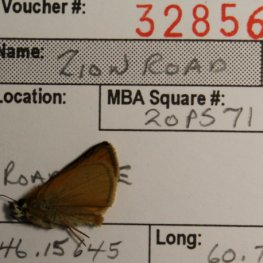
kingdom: Animalia
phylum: Arthropoda
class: Insecta
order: Lepidoptera
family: Hesperiidae
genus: Thymelicus
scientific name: Thymelicus lineola
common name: European Skipper
